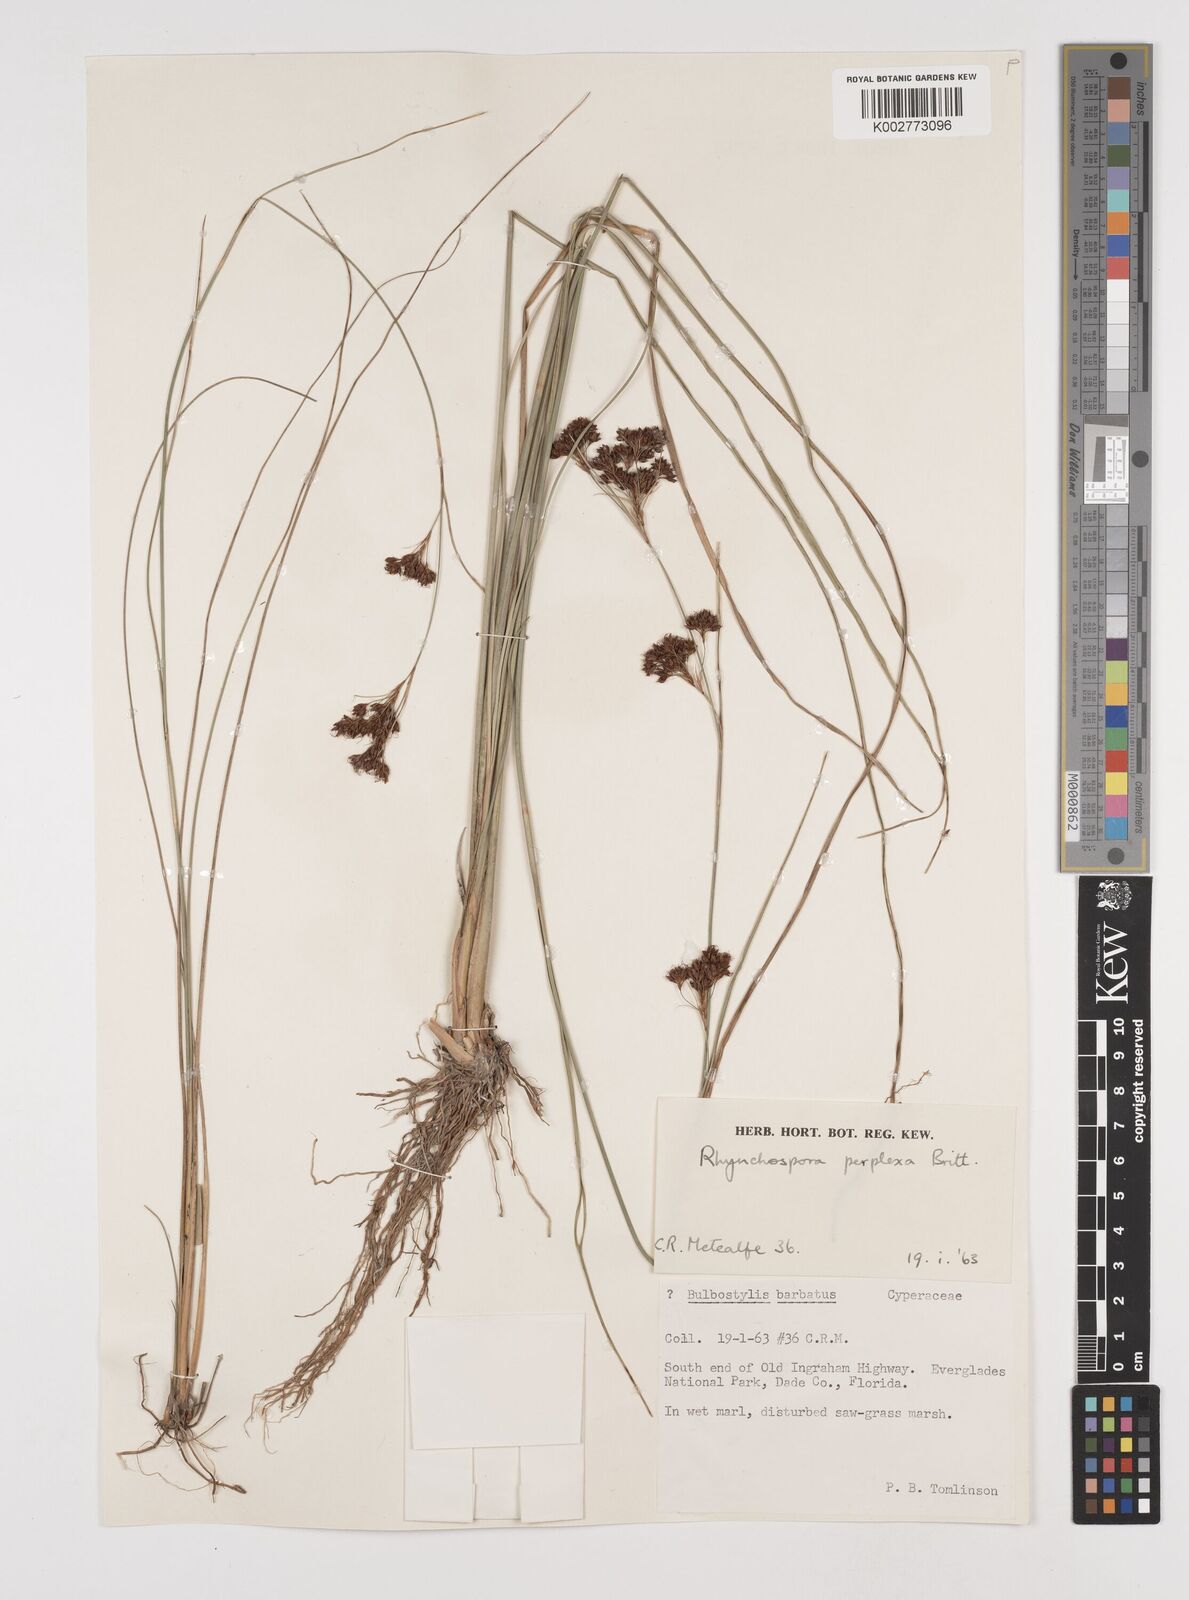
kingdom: Plantae
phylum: Tracheophyta
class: Liliopsida
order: Poales
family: Cyperaceae
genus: Rhynchospora
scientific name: Rhynchospora perplexa
